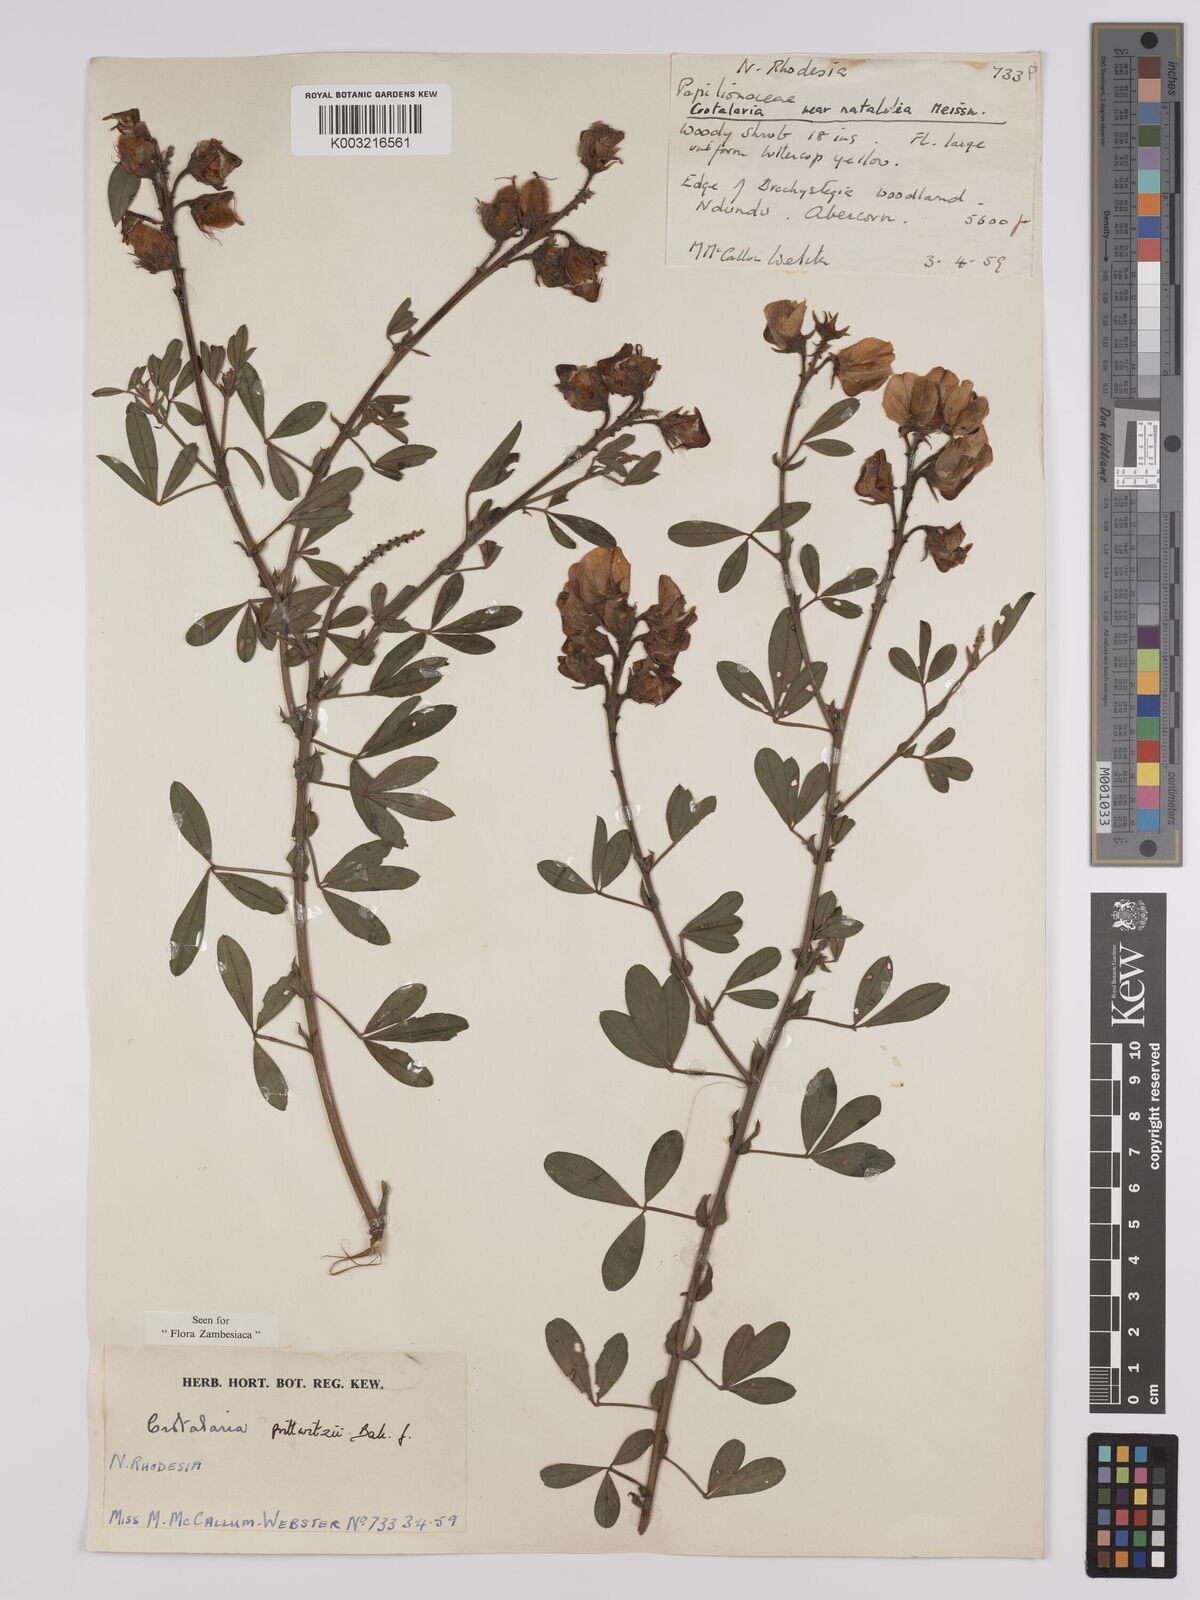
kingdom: Plantae
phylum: Tracheophyta
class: Magnoliopsida
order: Fabales
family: Fabaceae
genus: Crotalaria
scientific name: Crotalaria prittwitzii
